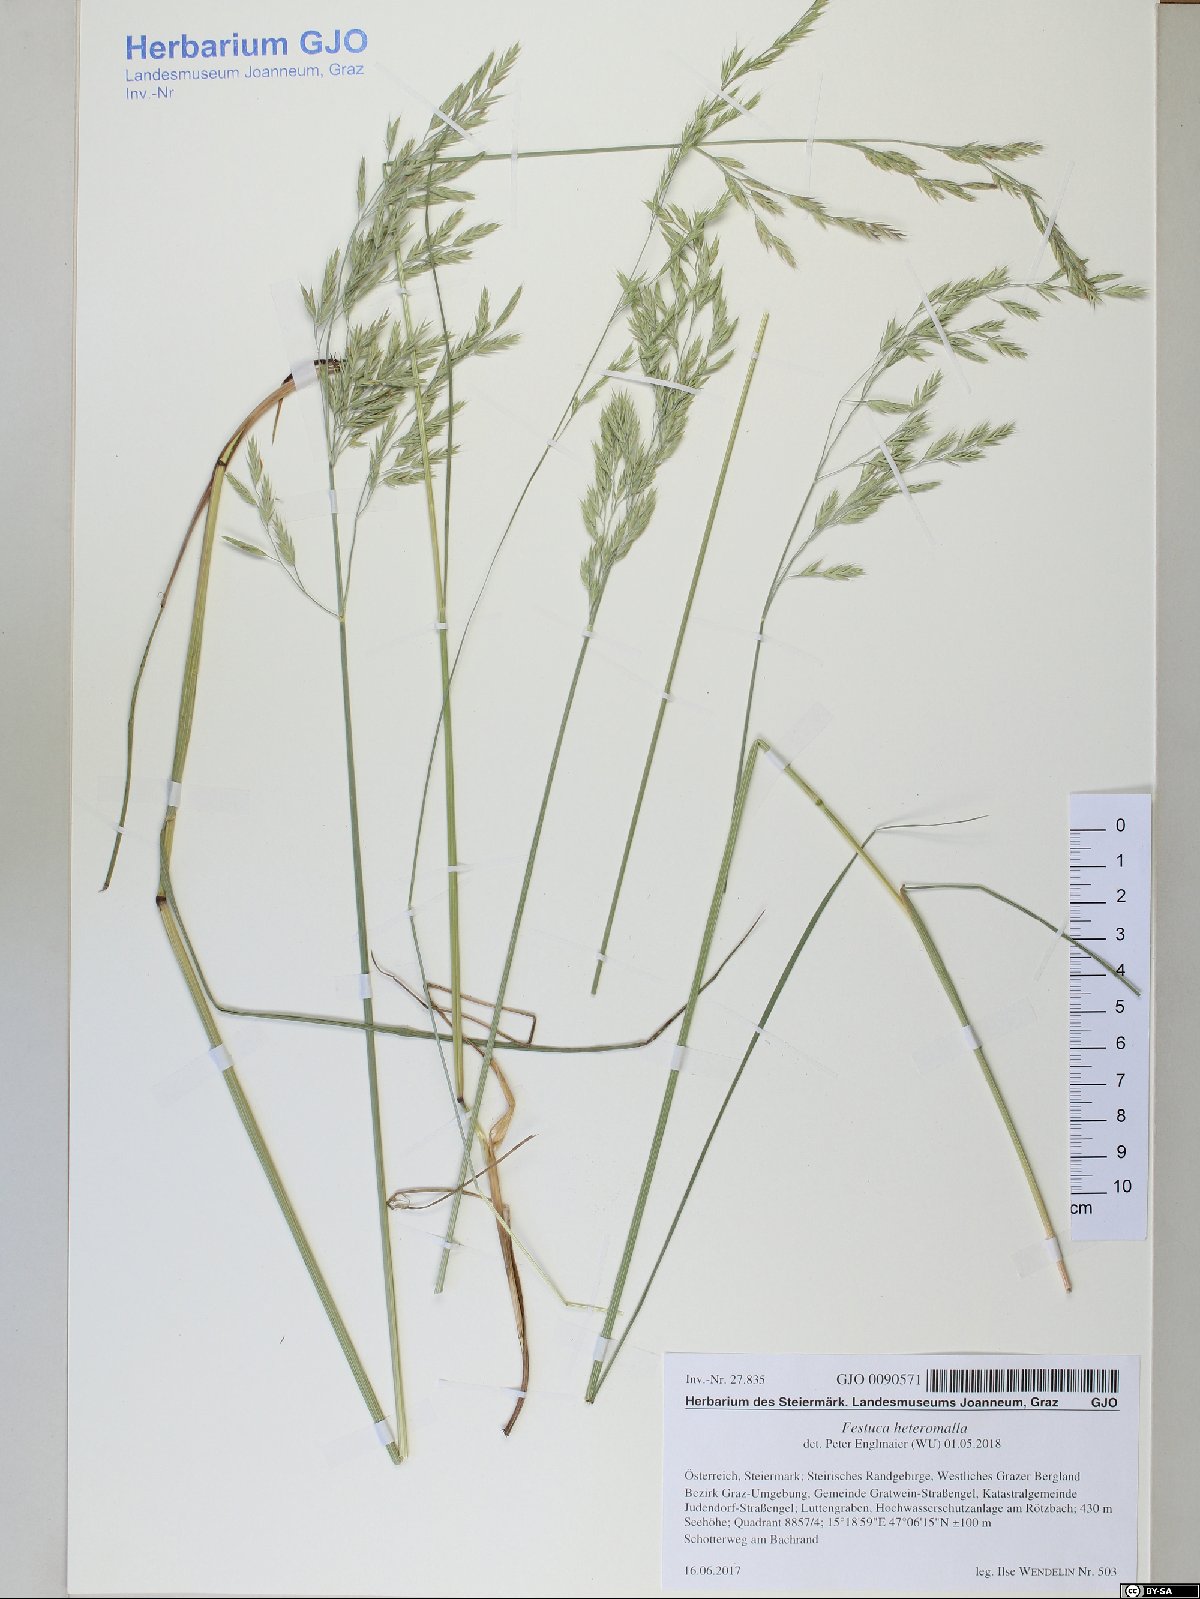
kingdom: Plantae
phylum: Tracheophyta
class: Liliopsida
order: Poales
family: Poaceae
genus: Festuca
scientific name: Festuca heteromalla
